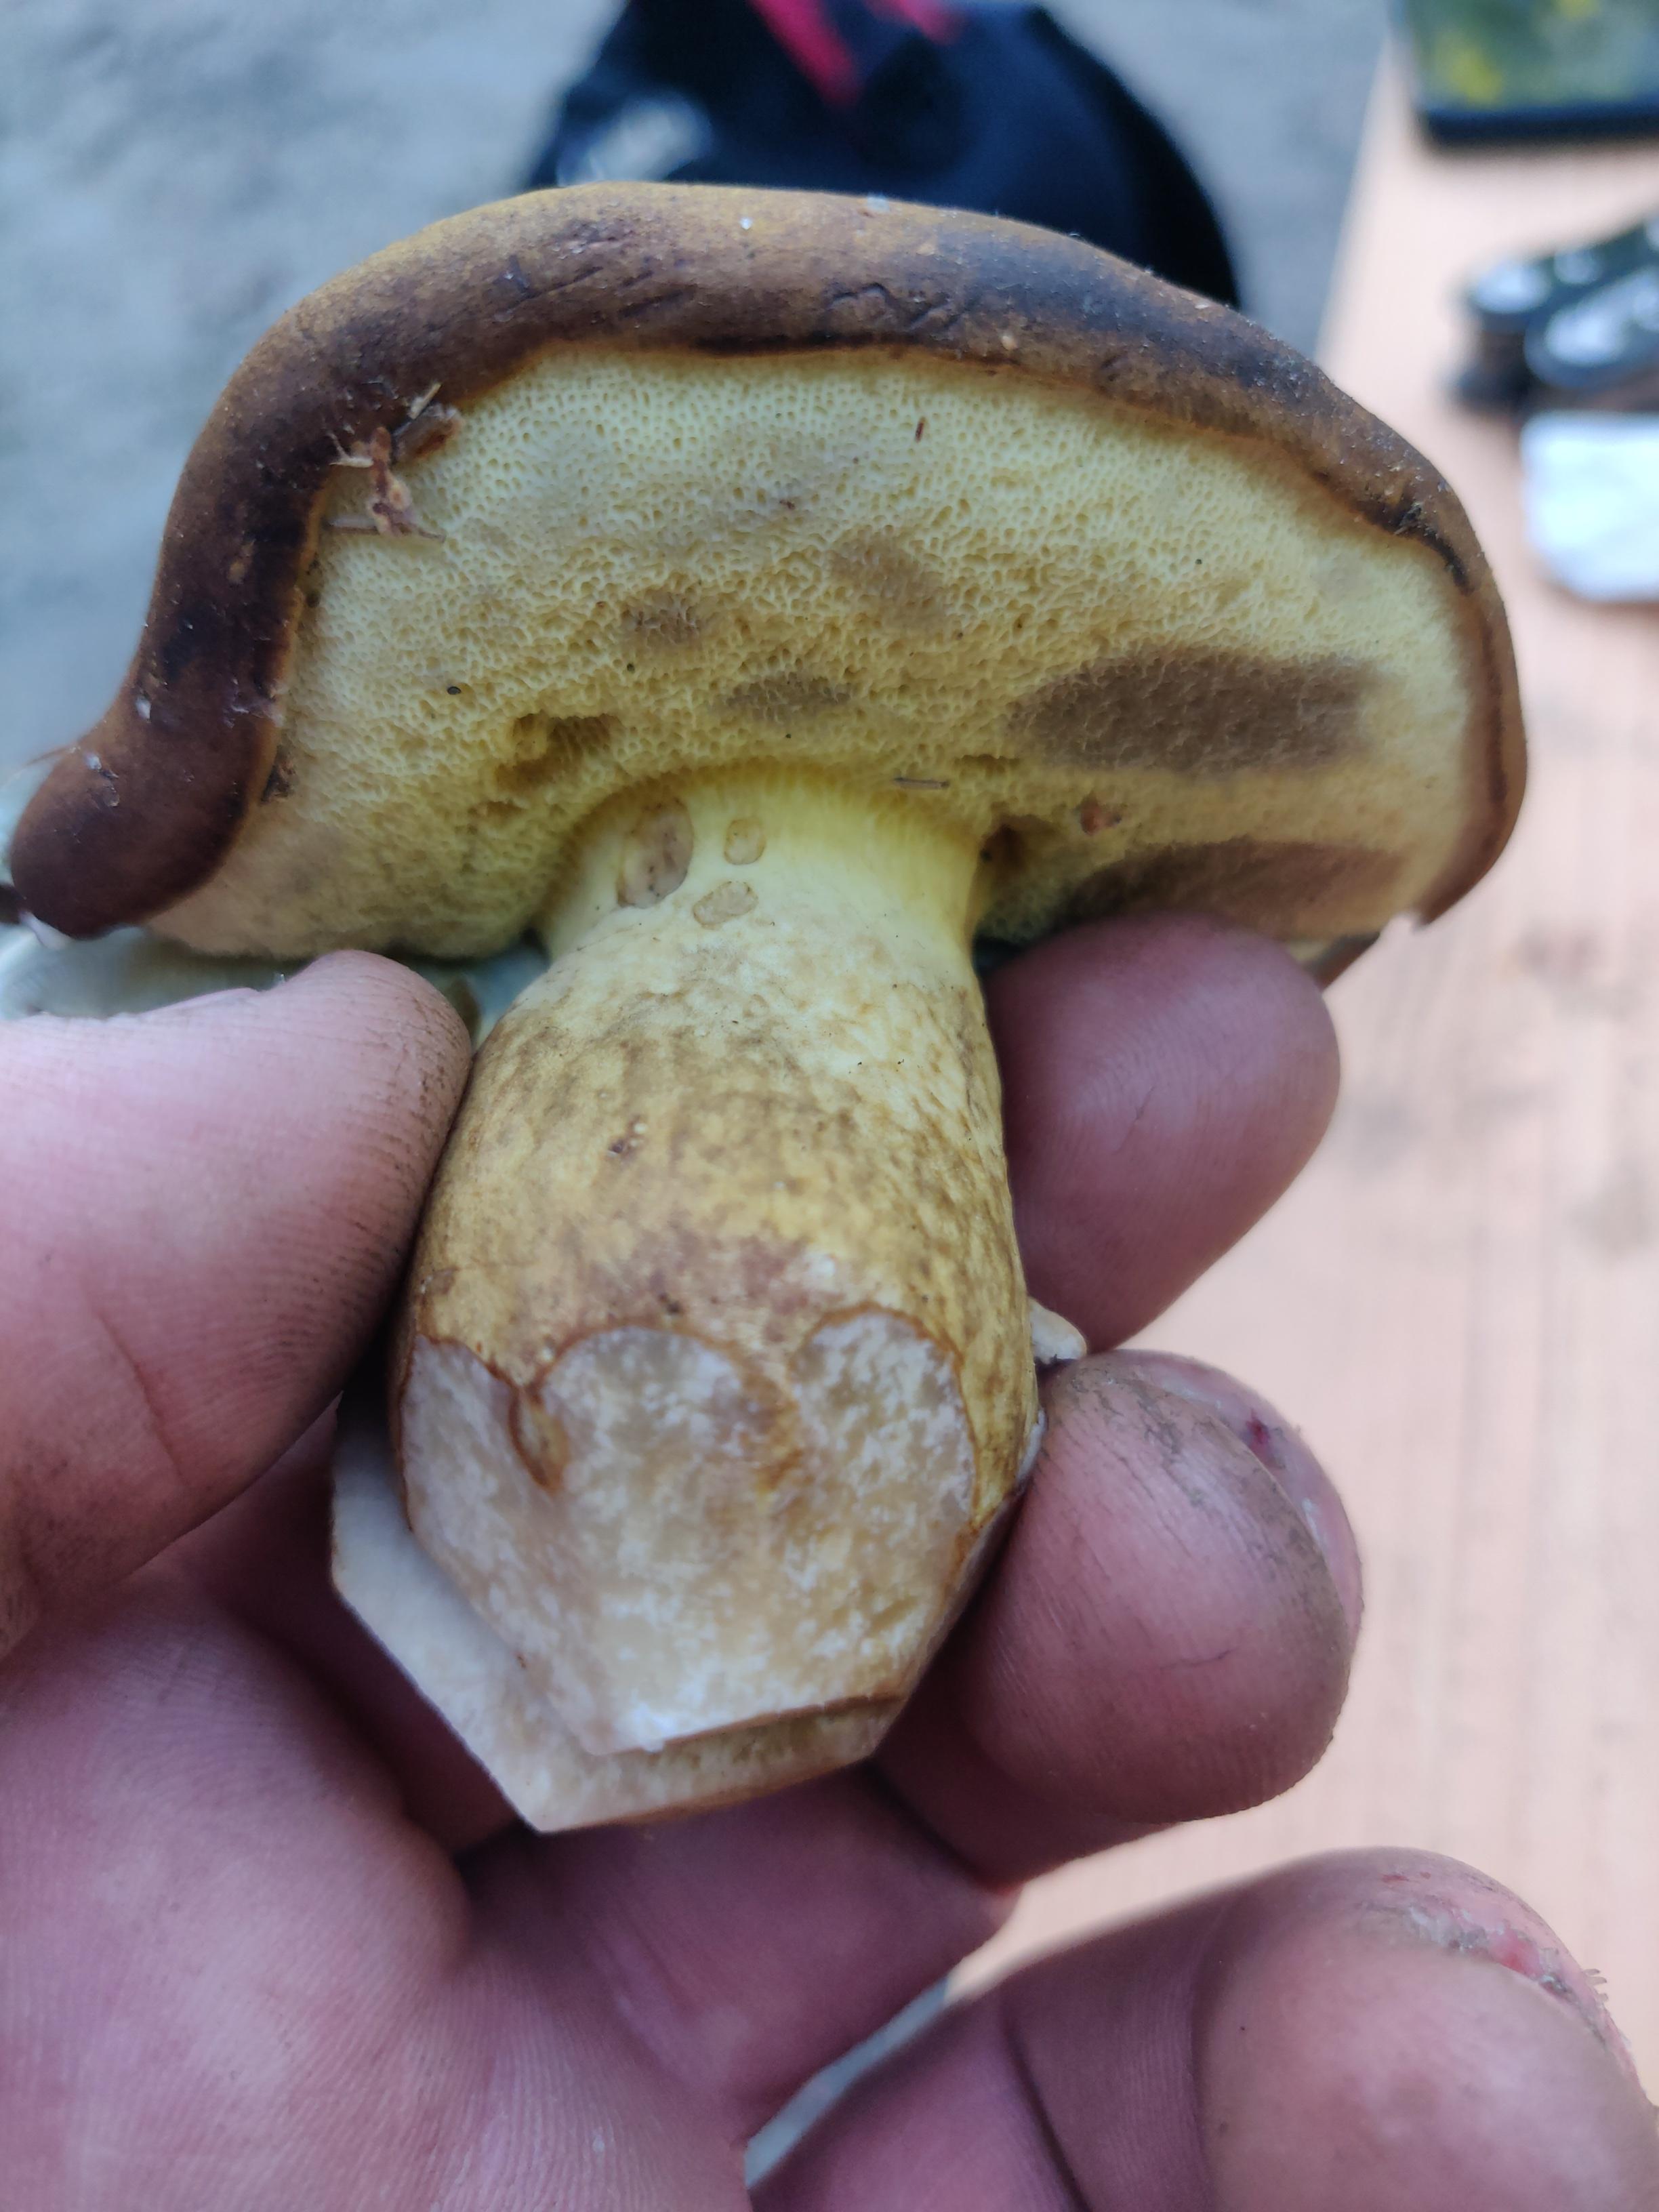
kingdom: Fungi
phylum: Basidiomycota
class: Agaricomycetes
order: Boletales
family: Boletaceae
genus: Imleria
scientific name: Imleria badia
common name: brunstokket rørhat
